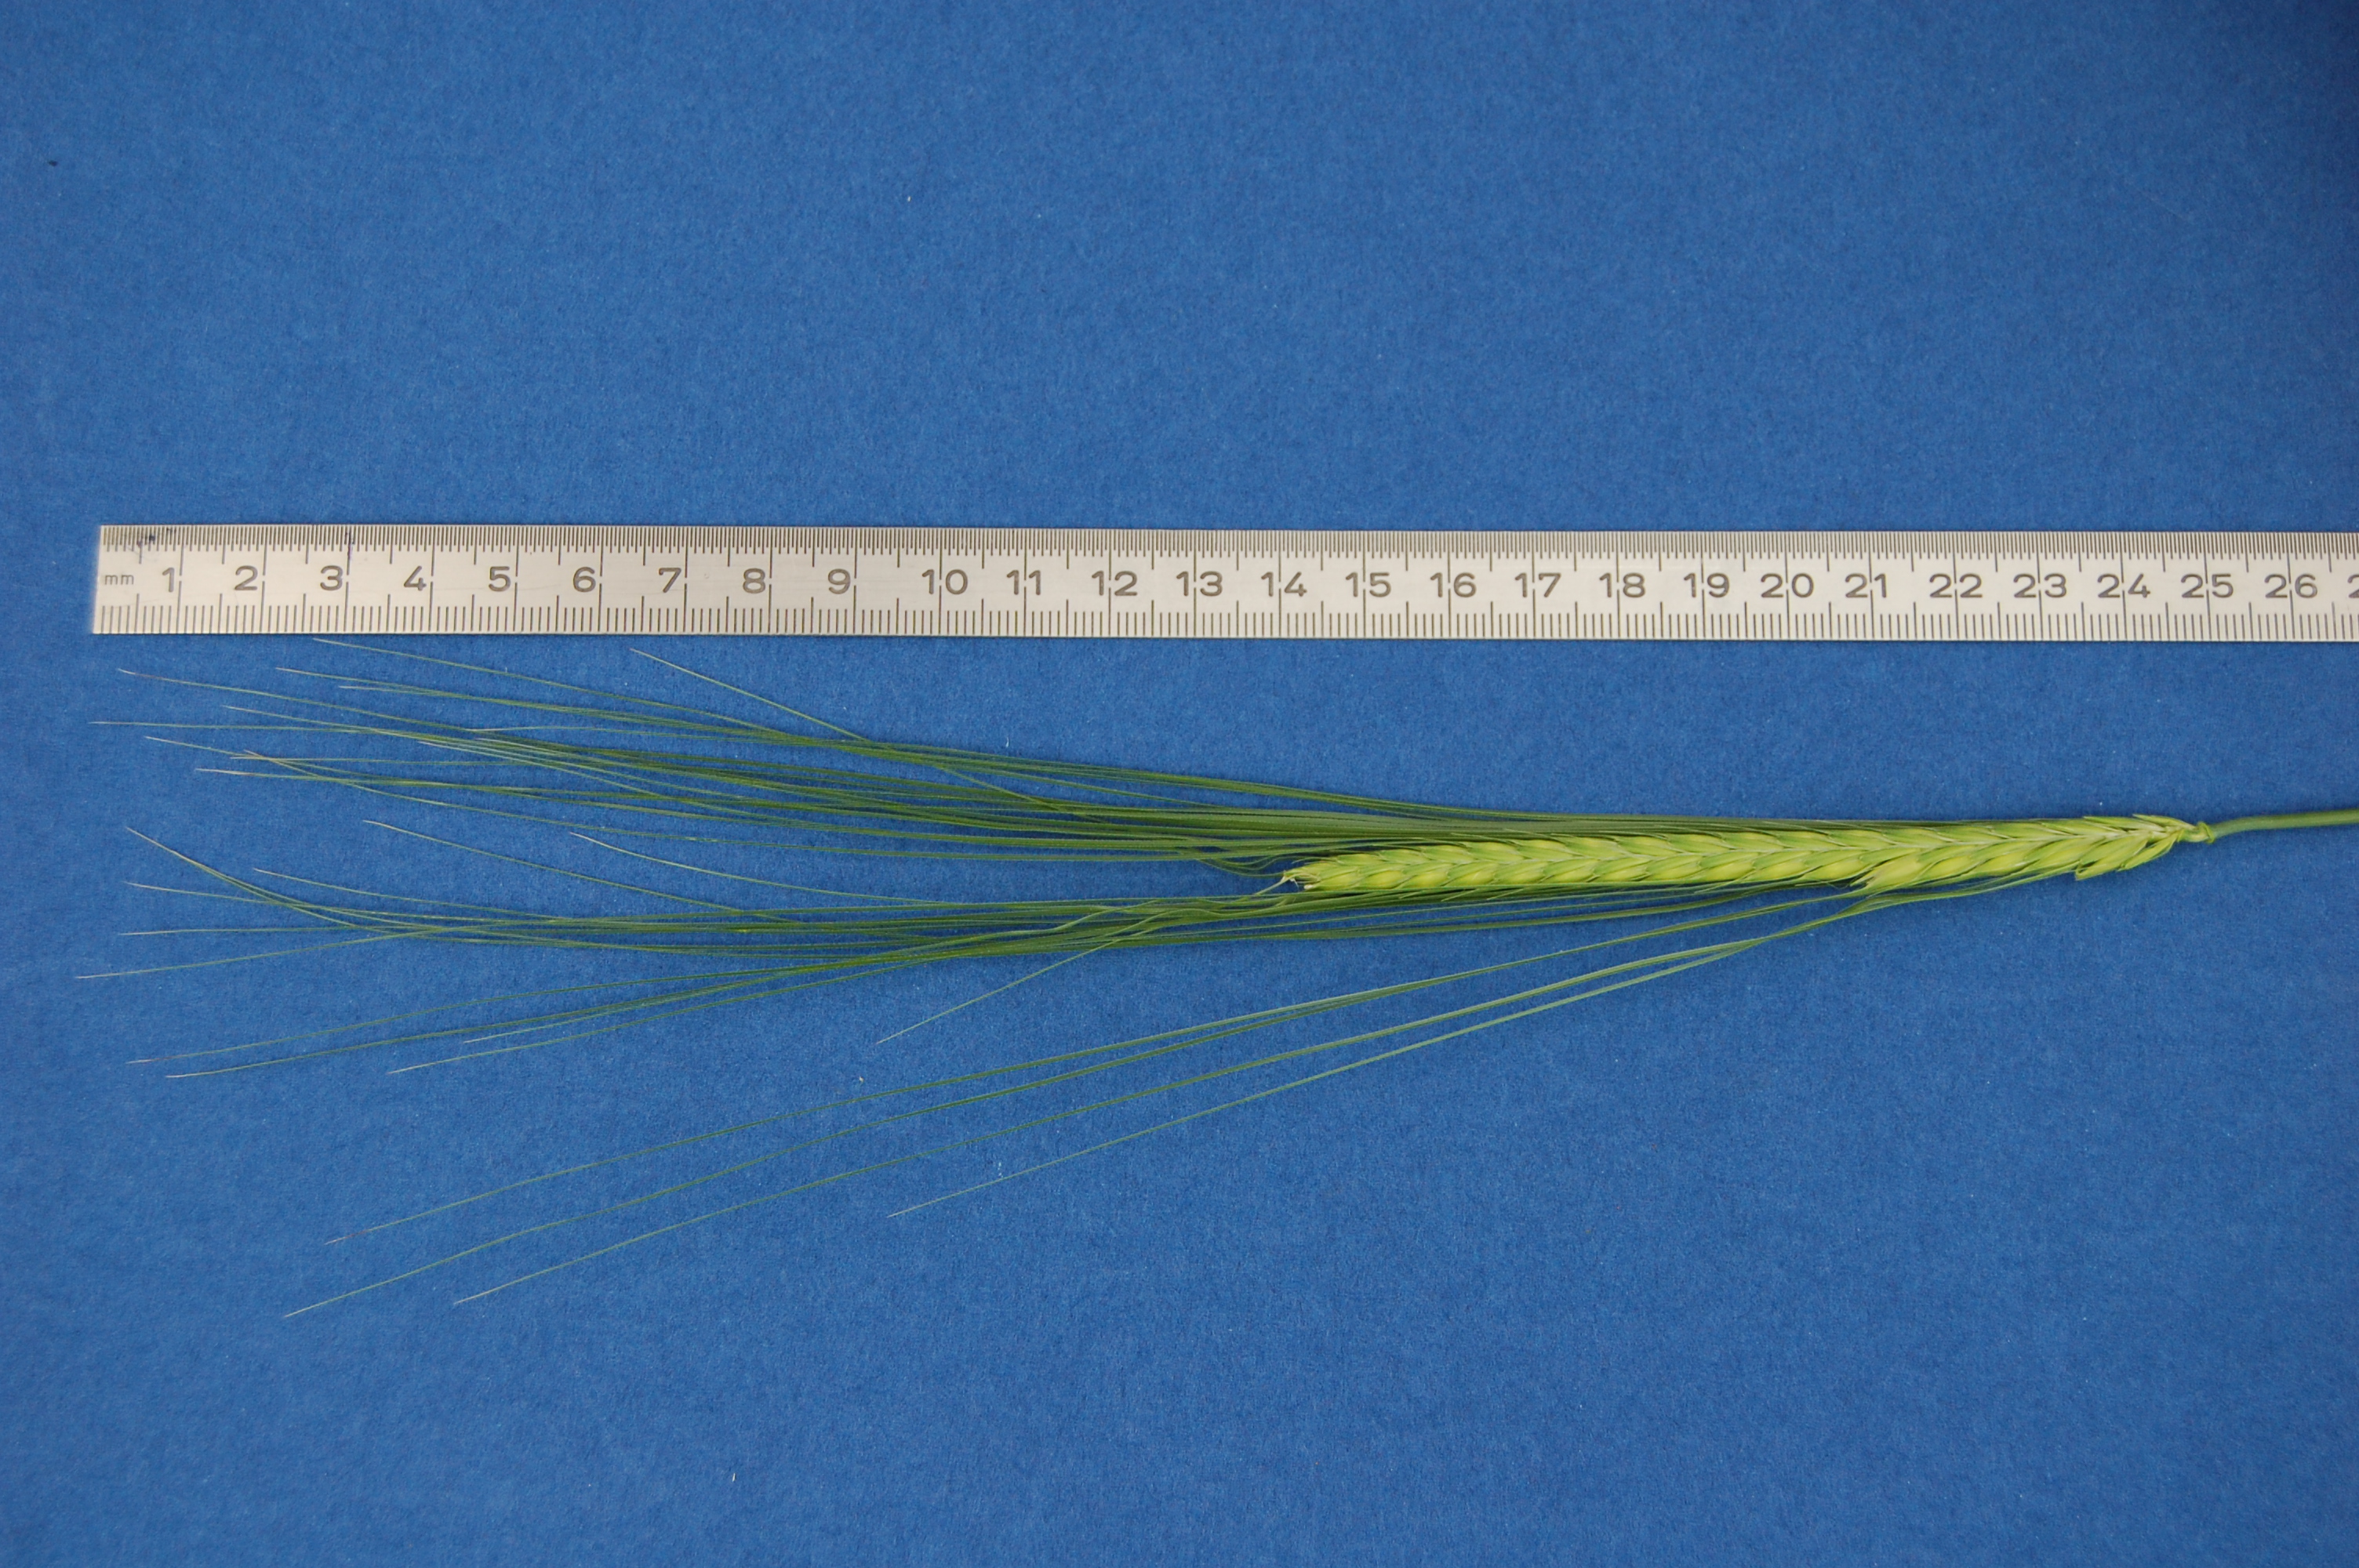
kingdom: Plantae
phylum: Tracheophyta
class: Liliopsida
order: Poales
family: Poaceae
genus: Hordeum
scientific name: Hordeum vulgare
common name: Common barley
